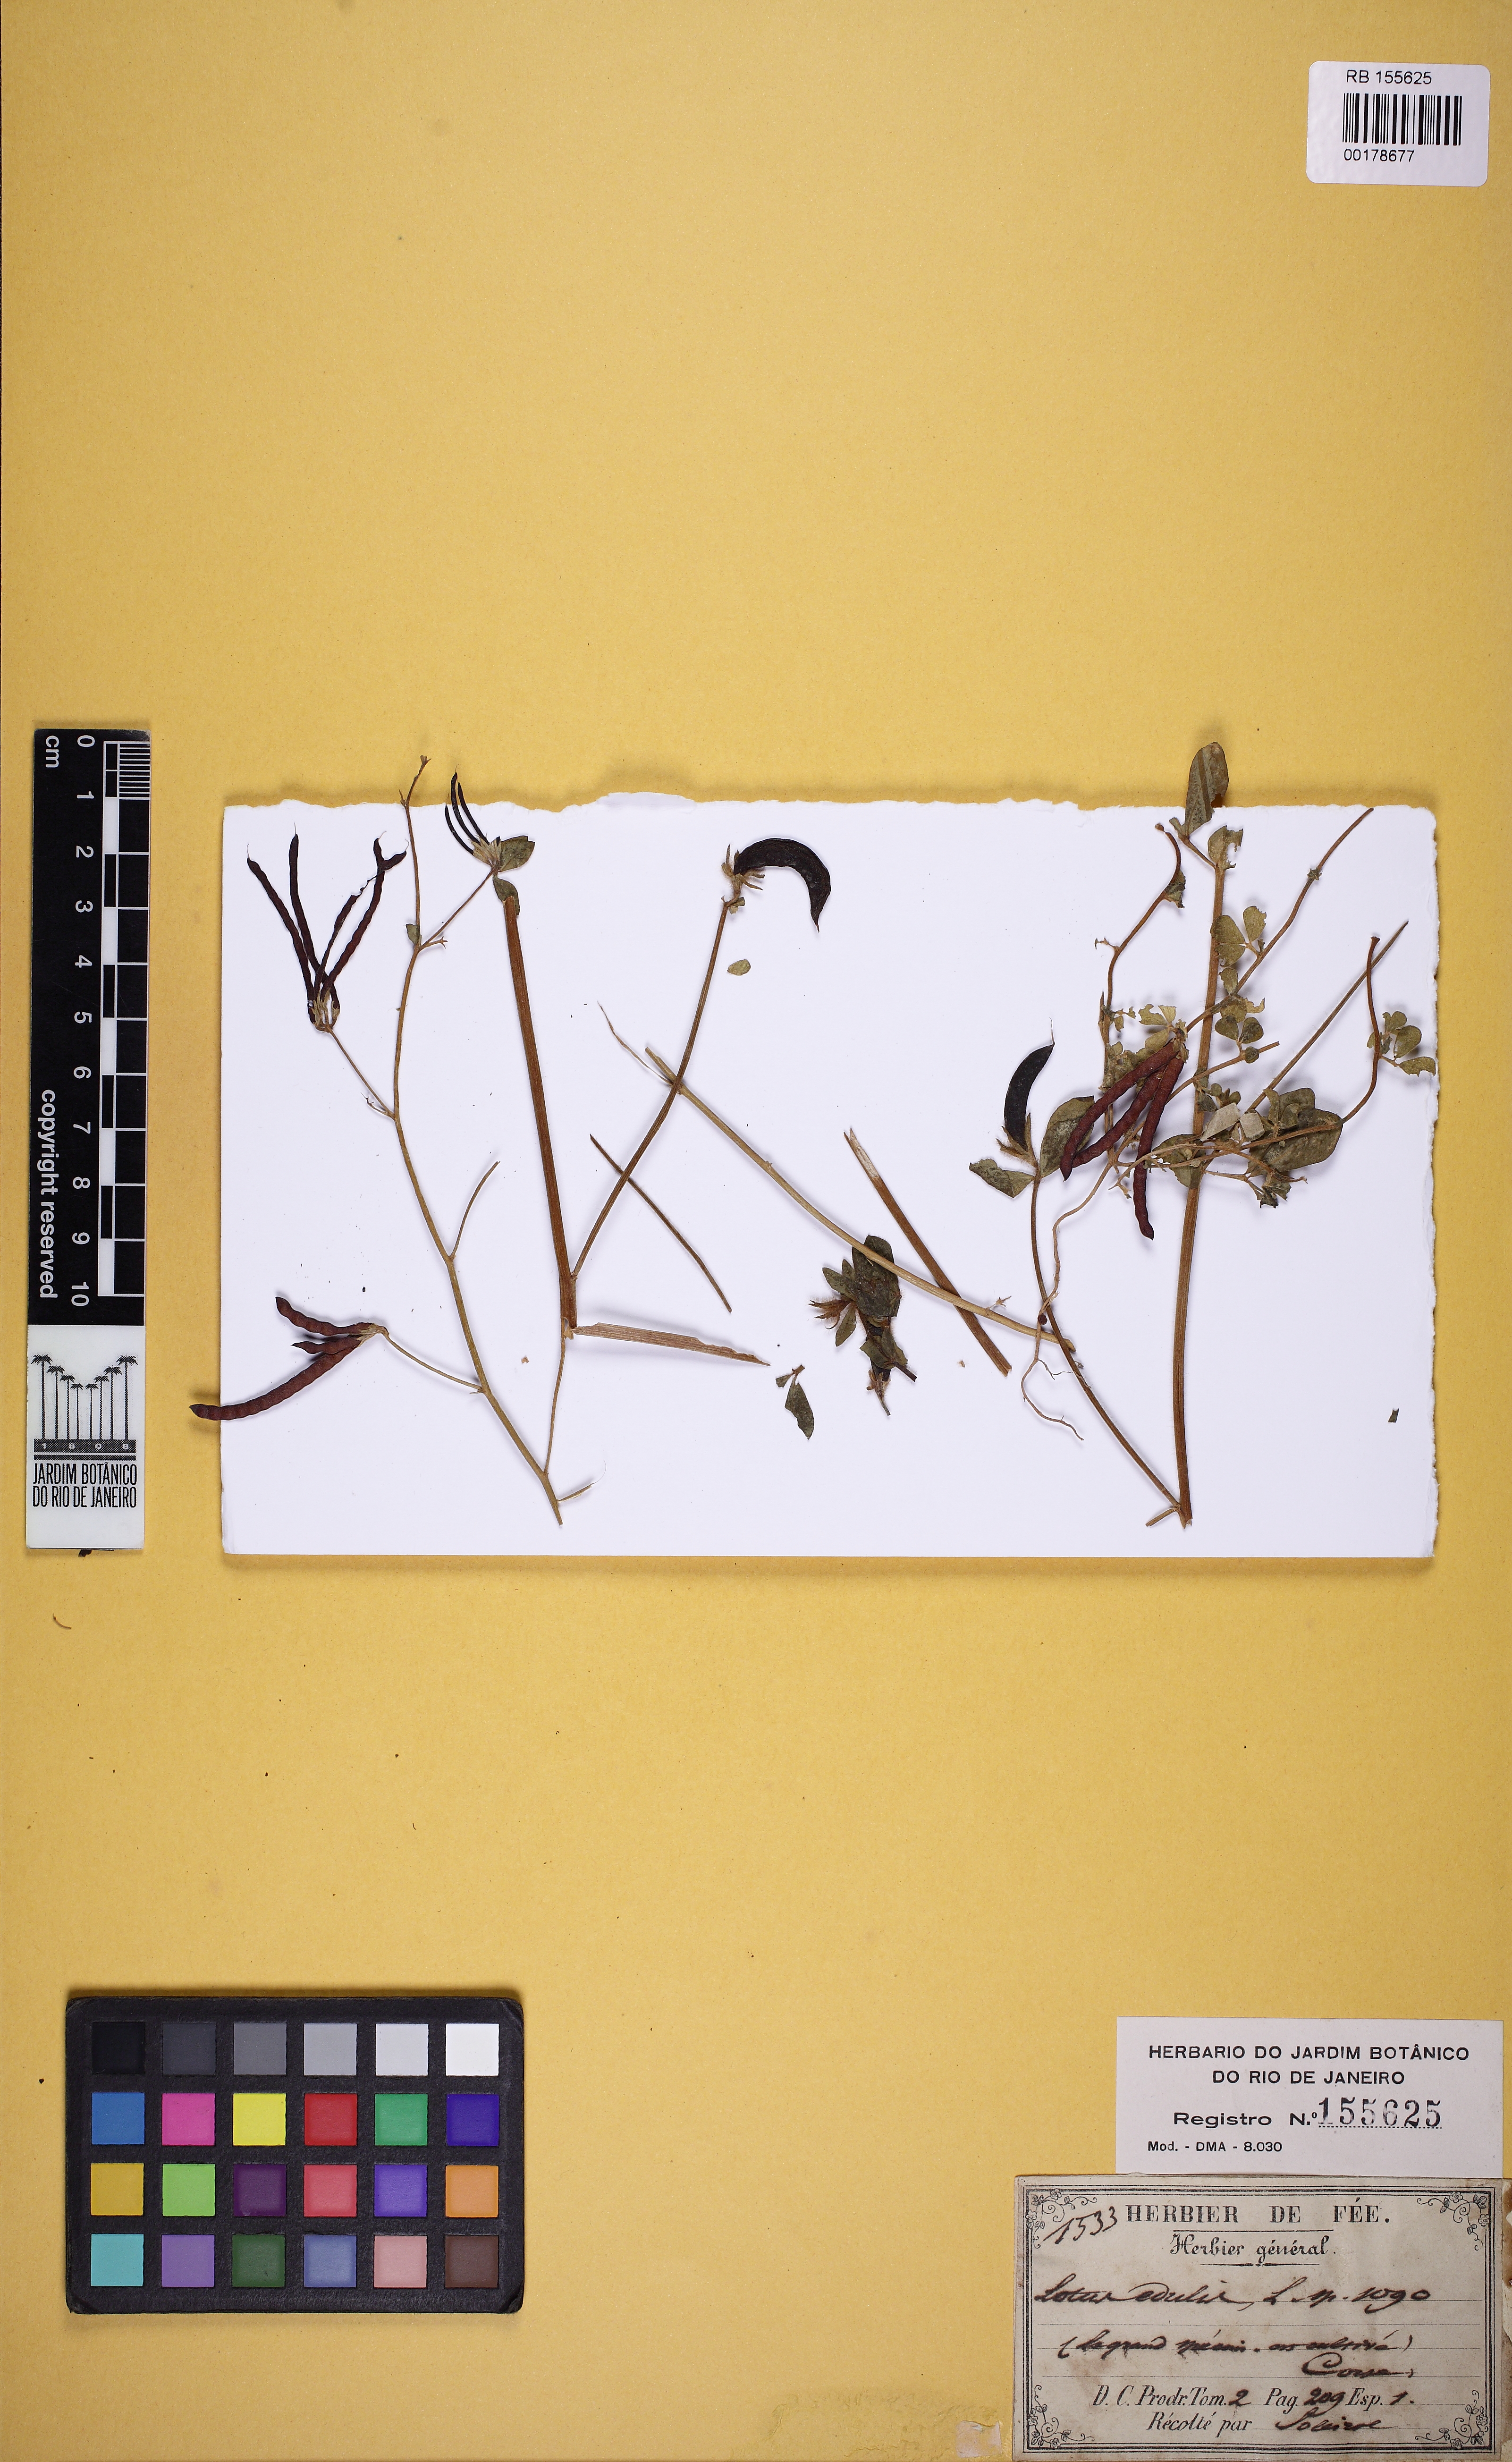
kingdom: Plantae
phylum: Tracheophyta
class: Magnoliopsida
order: Fabales
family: Fabaceae
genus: Lotus
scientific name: Lotus edulis
